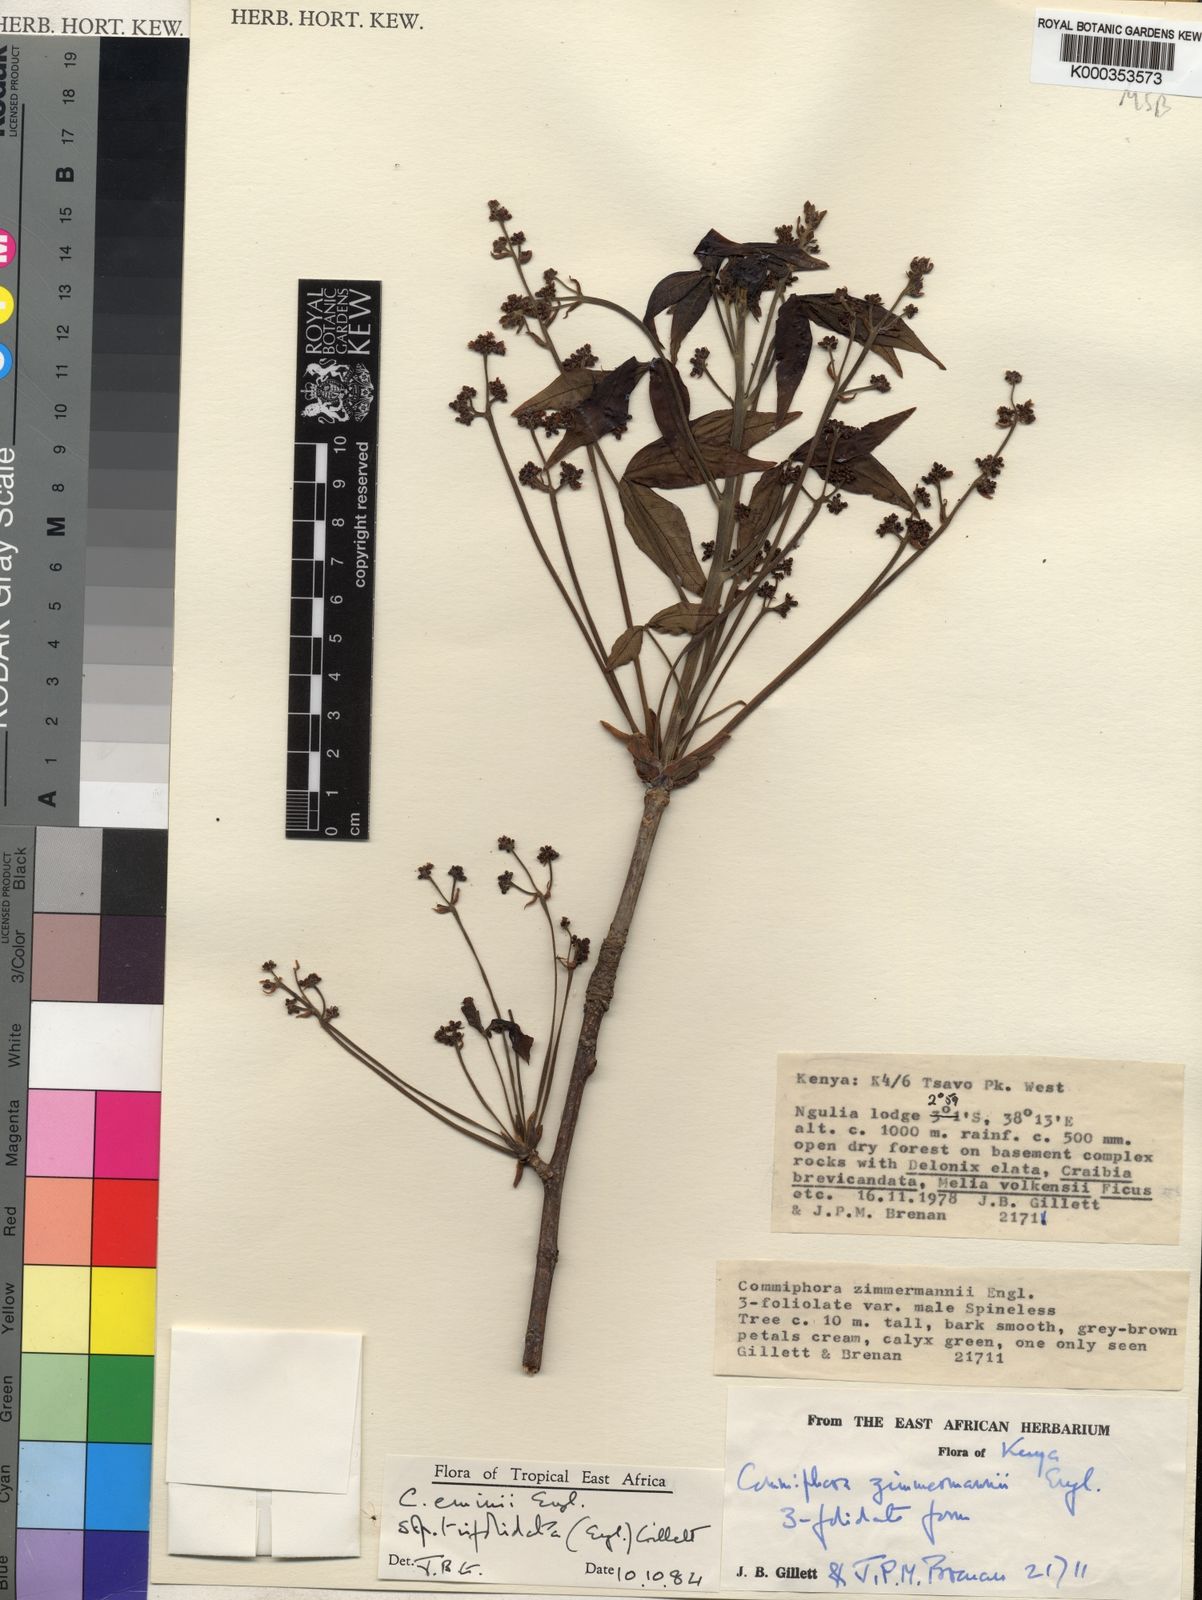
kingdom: Plantae
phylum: Tracheophyta
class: Magnoliopsida
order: Sapindales
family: Burseraceae
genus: Commiphora
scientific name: Commiphora eminii
